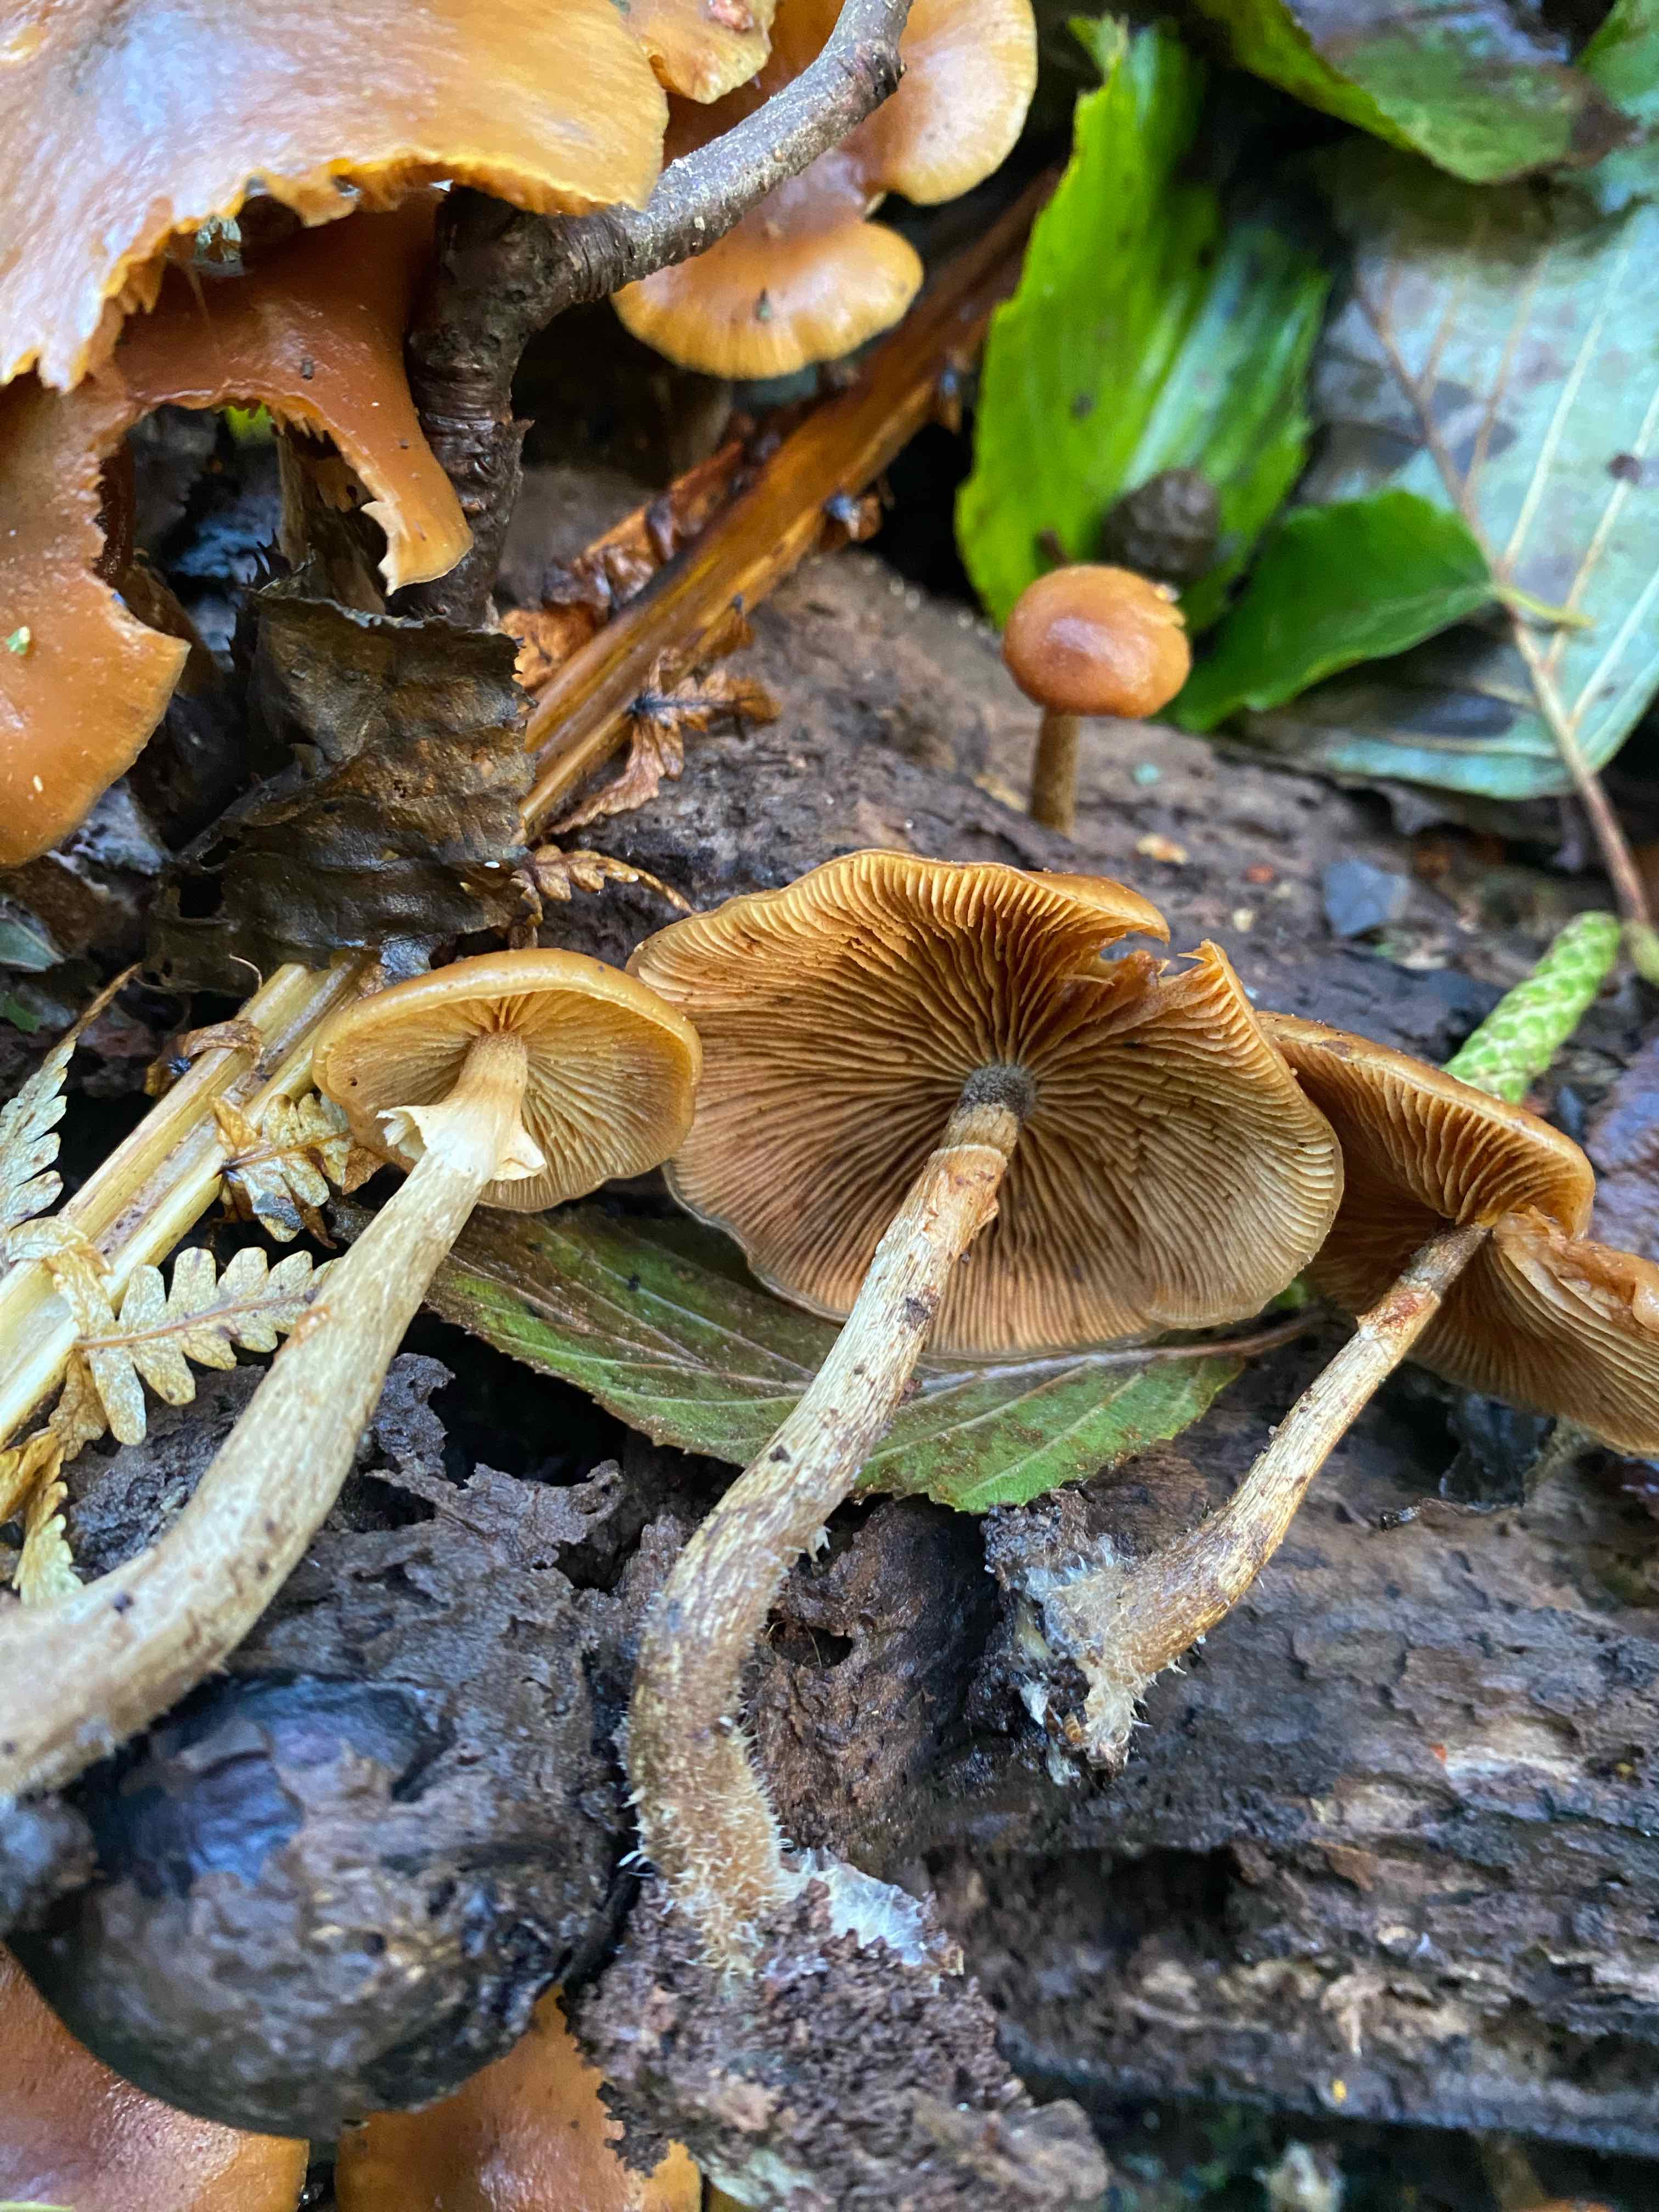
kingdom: Fungi
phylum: Basidiomycota
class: Agaricomycetes
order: Agaricales
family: Hymenogastraceae
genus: Galerina
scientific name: Galerina marginata
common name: randbæltet hjelmhat
